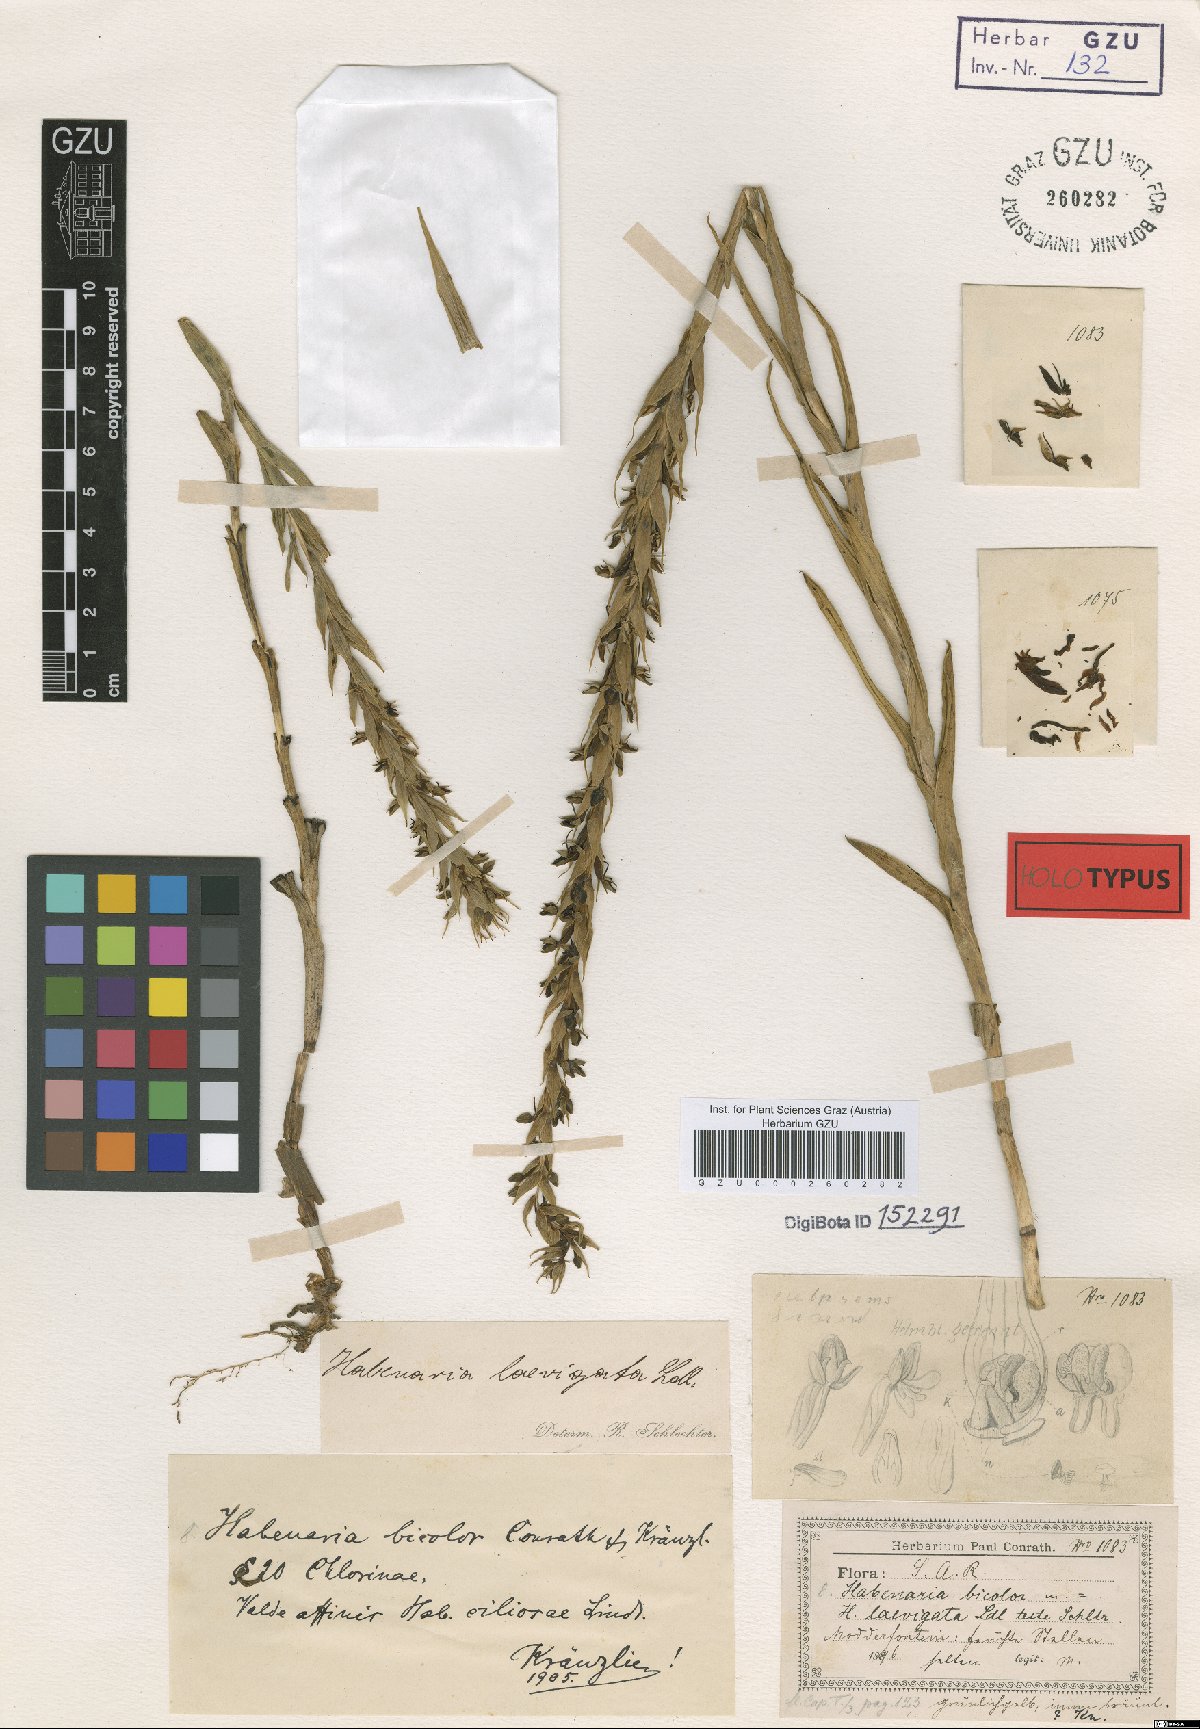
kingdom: Plantae
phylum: Tracheophyta
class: Liliopsida
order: Asparagales
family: Orchidaceae
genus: Habenaria
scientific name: Habenaria bicolor
